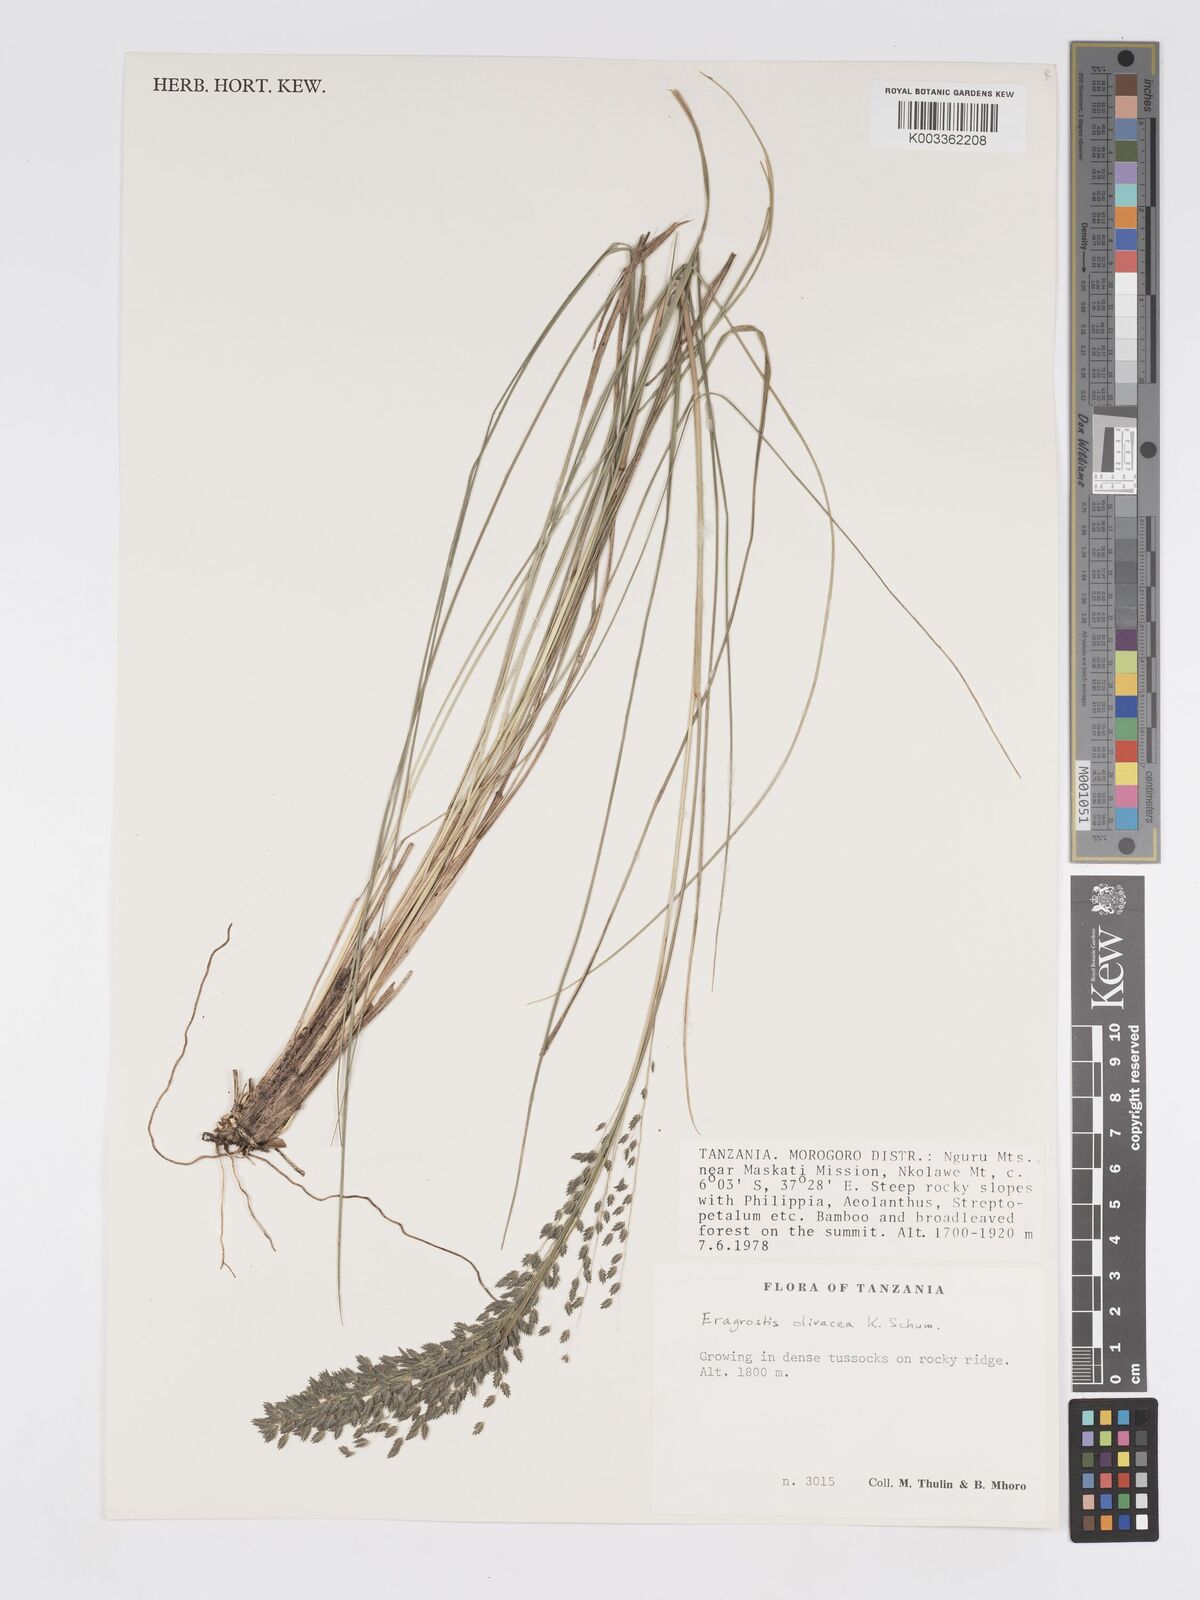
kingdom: Plantae
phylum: Tracheophyta
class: Liliopsida
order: Poales
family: Poaceae
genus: Eragrostis
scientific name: Eragrostis olivacea
